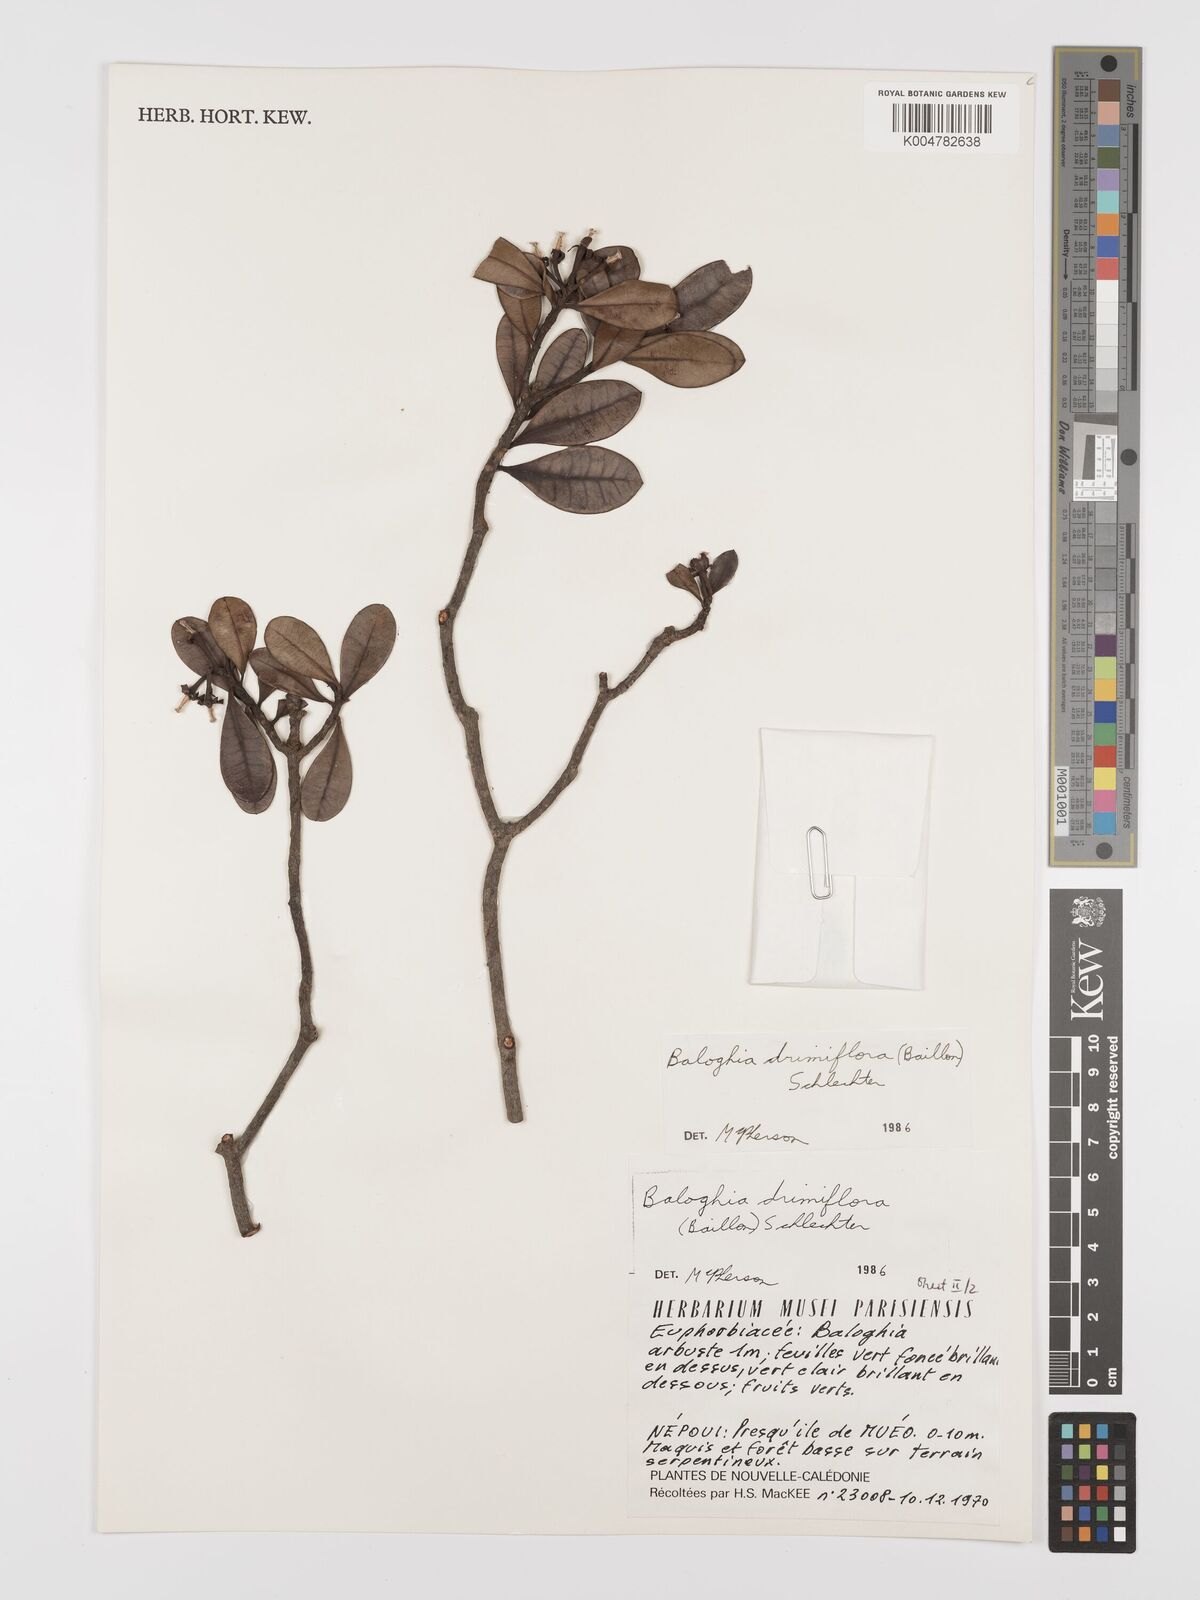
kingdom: Plantae
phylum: Tracheophyta
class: Magnoliopsida
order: Malpighiales
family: Euphorbiaceae
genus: Baloghia
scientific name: Baloghia drimiflora
